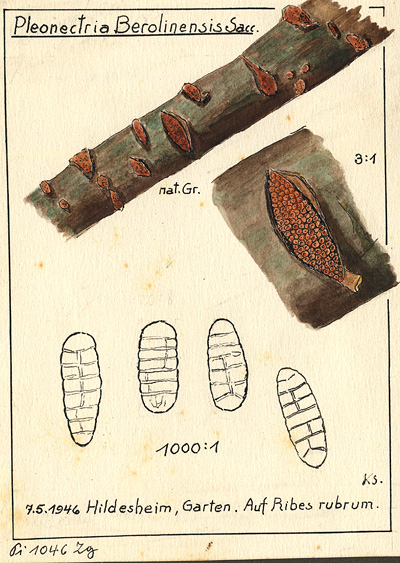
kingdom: Plantae
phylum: Tracheophyta
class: Magnoliopsida
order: Saxifragales
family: Grossulariaceae
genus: Ribes
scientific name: Ribes rubrum
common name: Red currant
